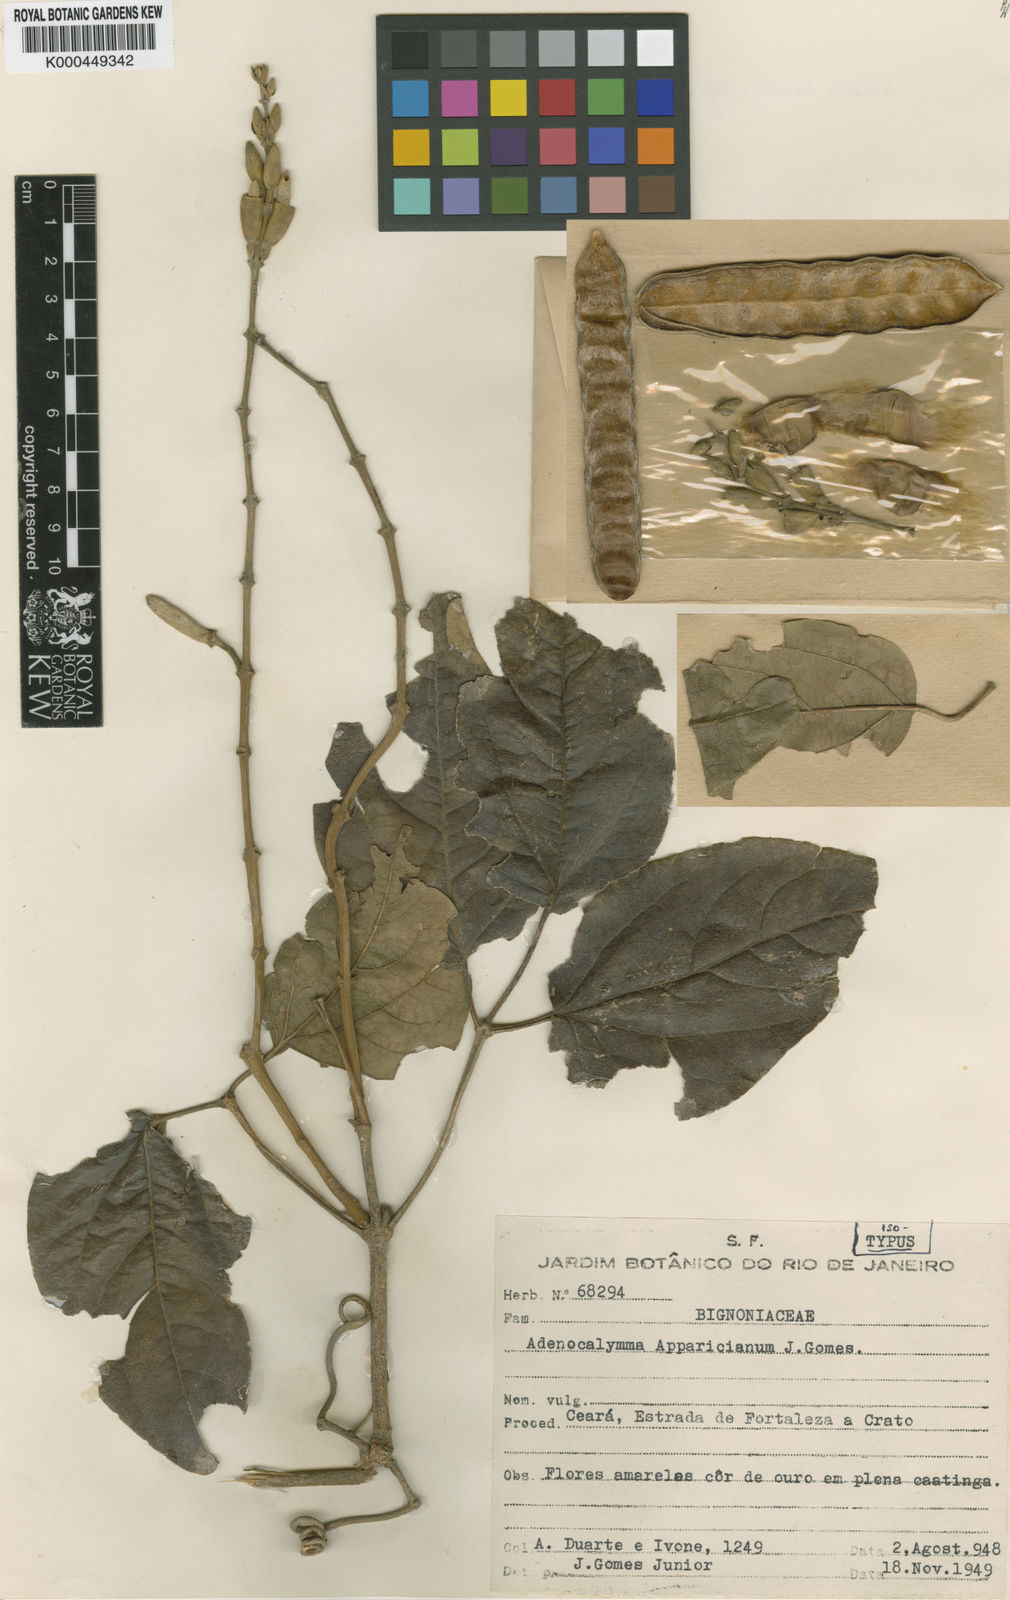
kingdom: Plantae
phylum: Tracheophyta
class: Magnoliopsida
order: Lamiales
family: Bignoniaceae
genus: Adenocalymma
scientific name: Adenocalymma apparicianum
